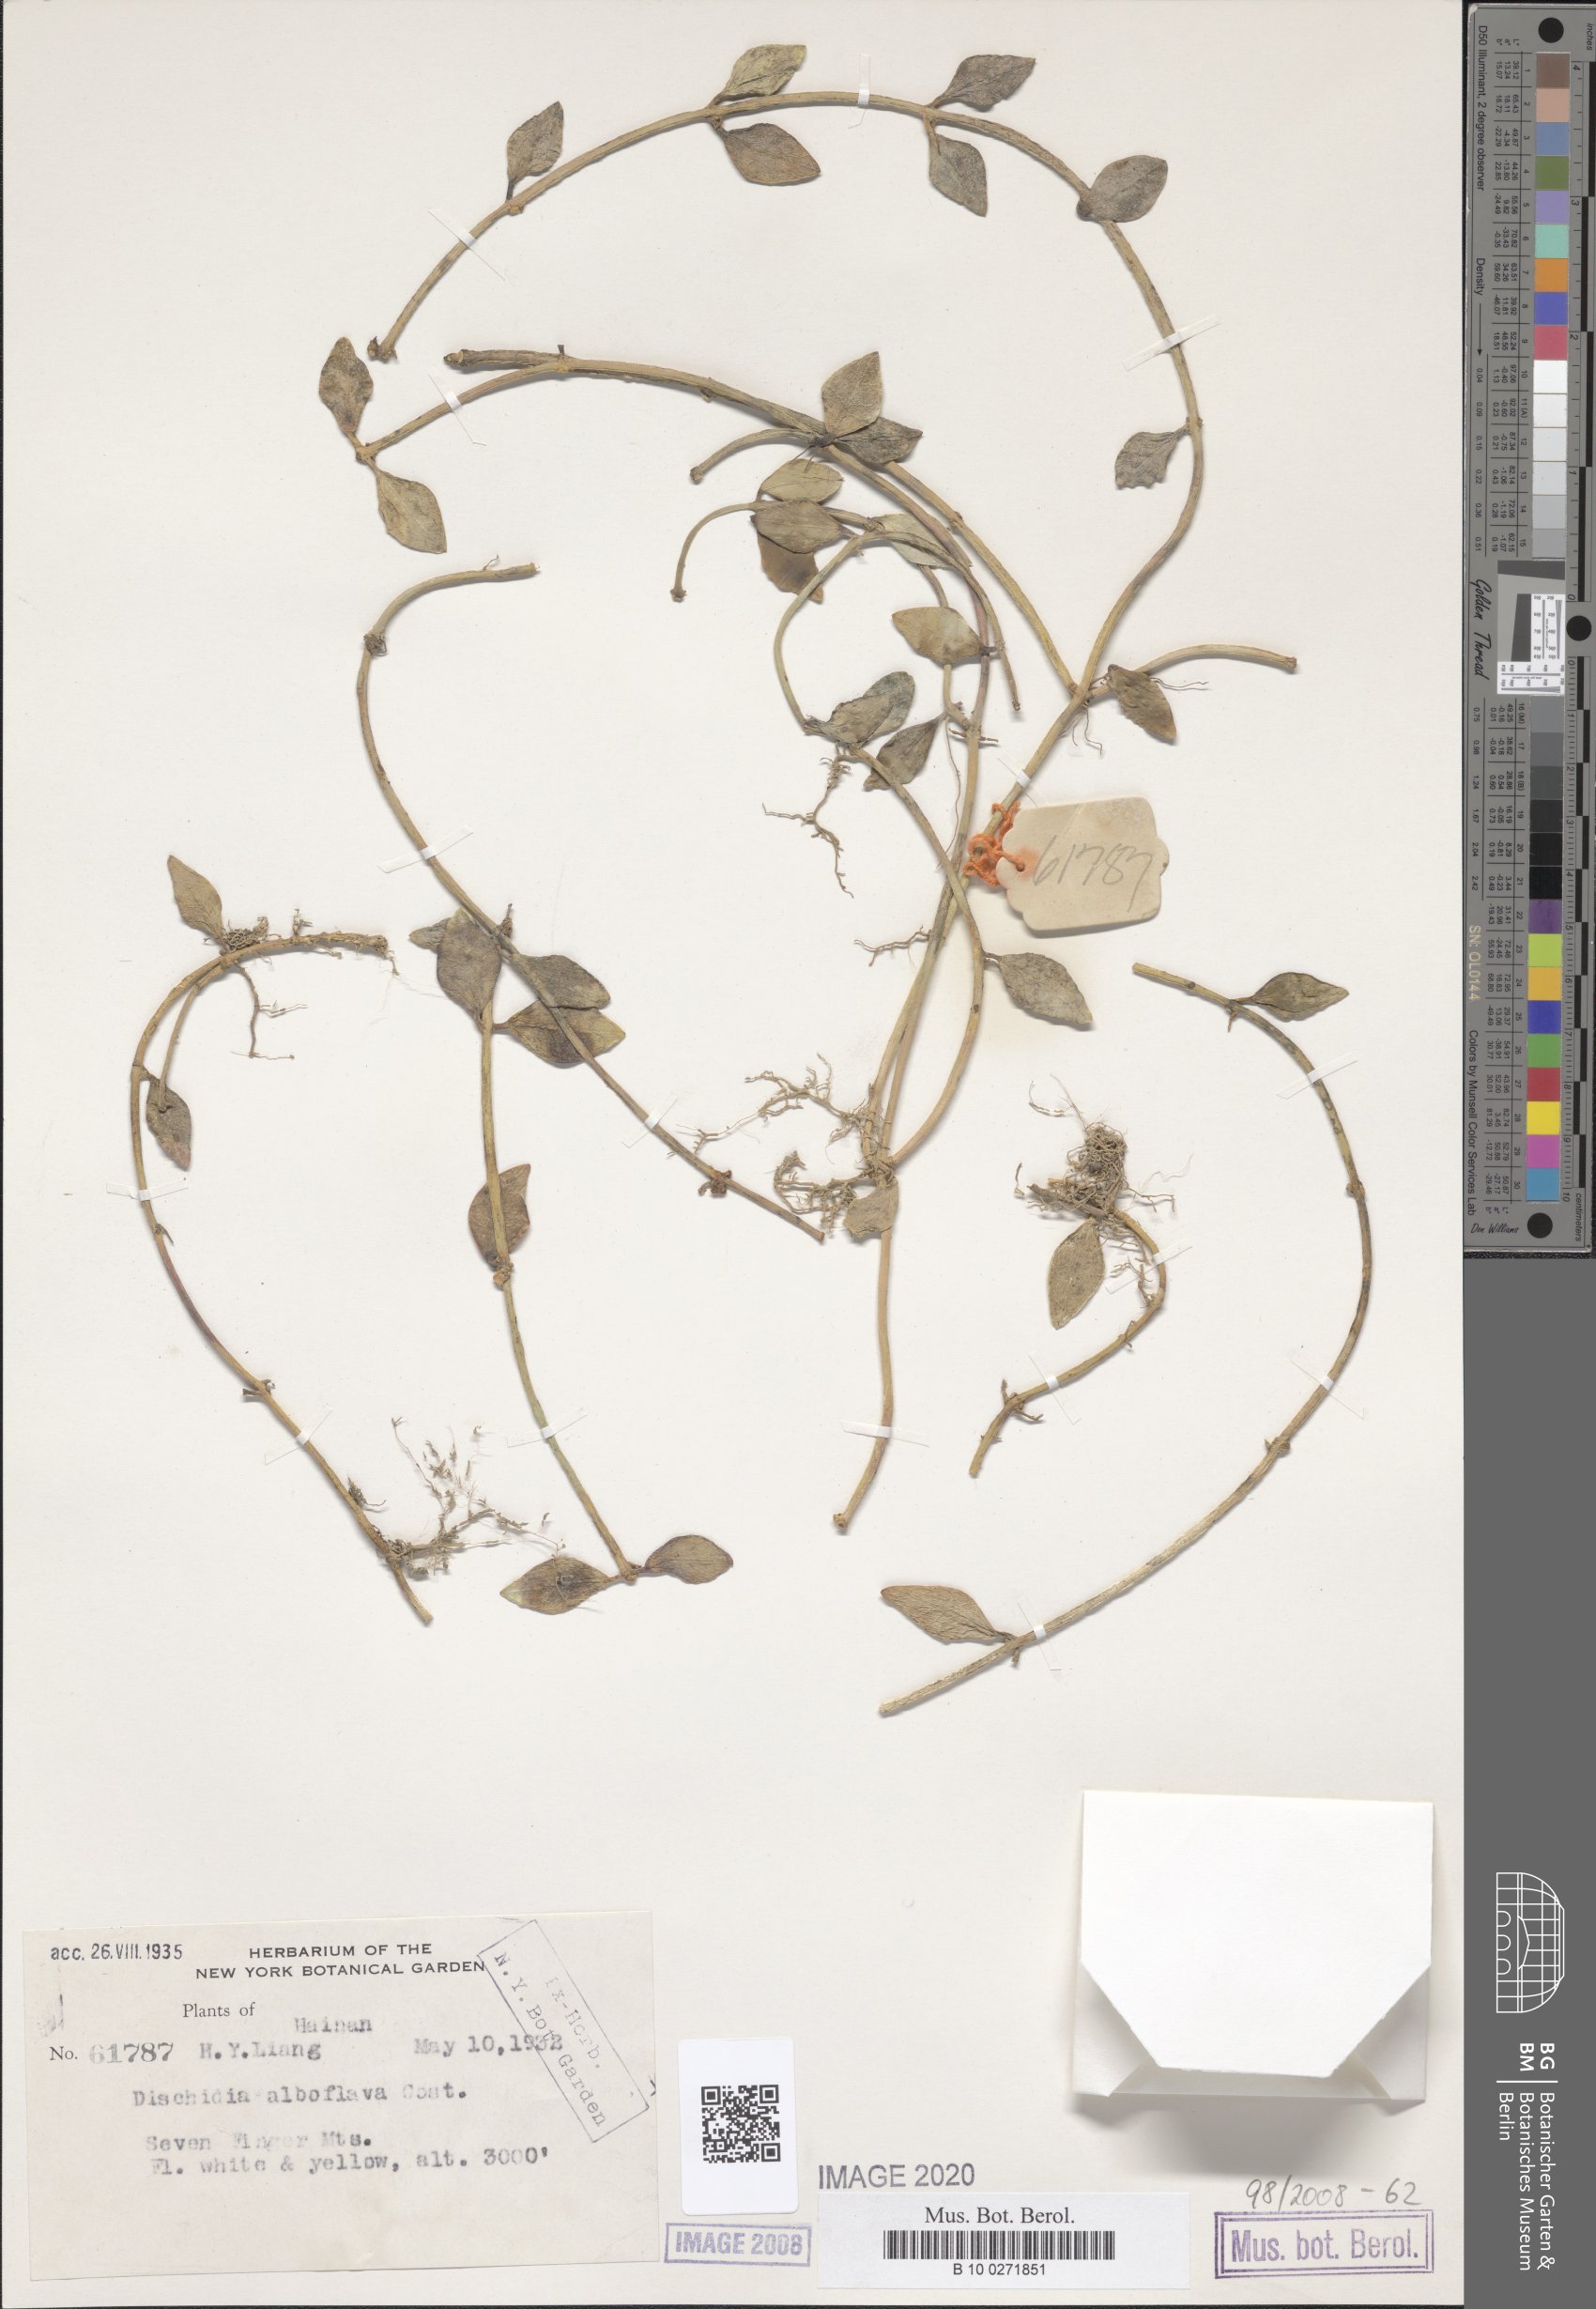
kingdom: Plantae
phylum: Tracheophyta
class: Magnoliopsida
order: Gentianales
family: Apocynaceae
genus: Dischidia
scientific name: Dischidia tonkinensis
